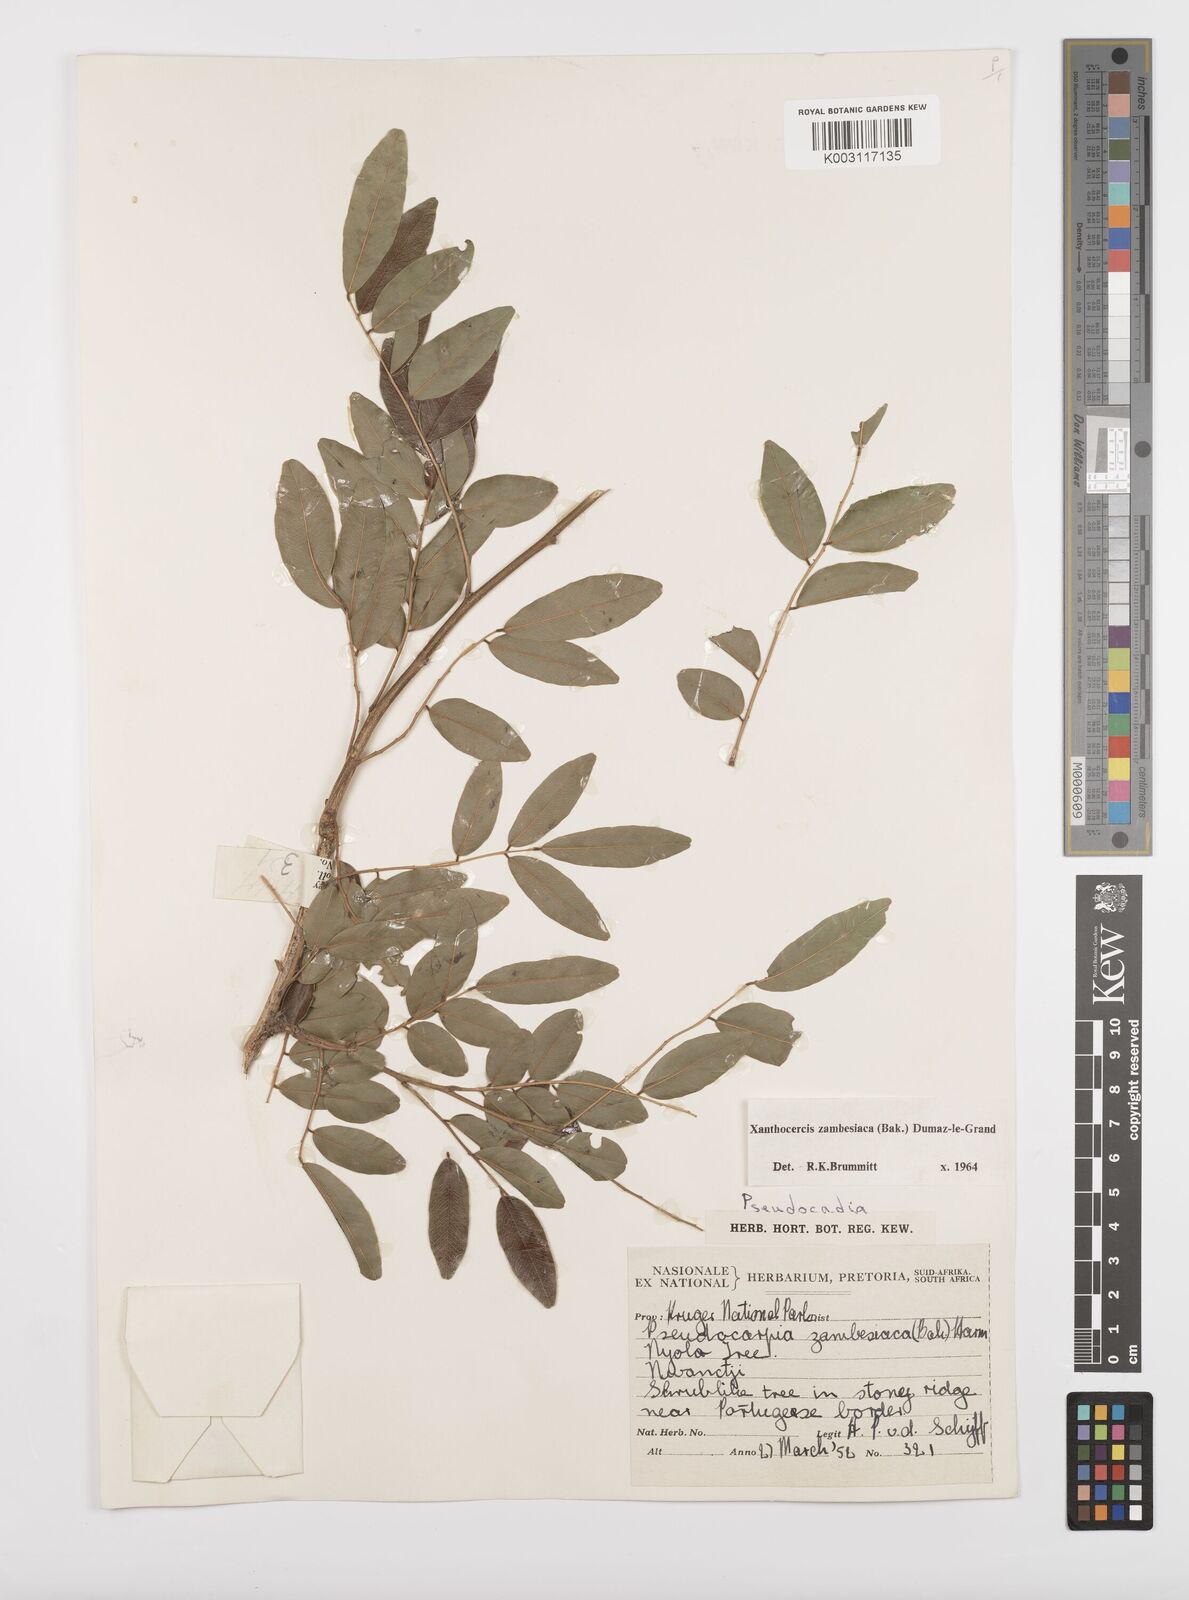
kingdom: Plantae
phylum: Tracheophyta
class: Magnoliopsida
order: Fabales
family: Fabaceae
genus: Xanthocercis
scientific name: Xanthocercis zambesiaca
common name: Nyala-tree
